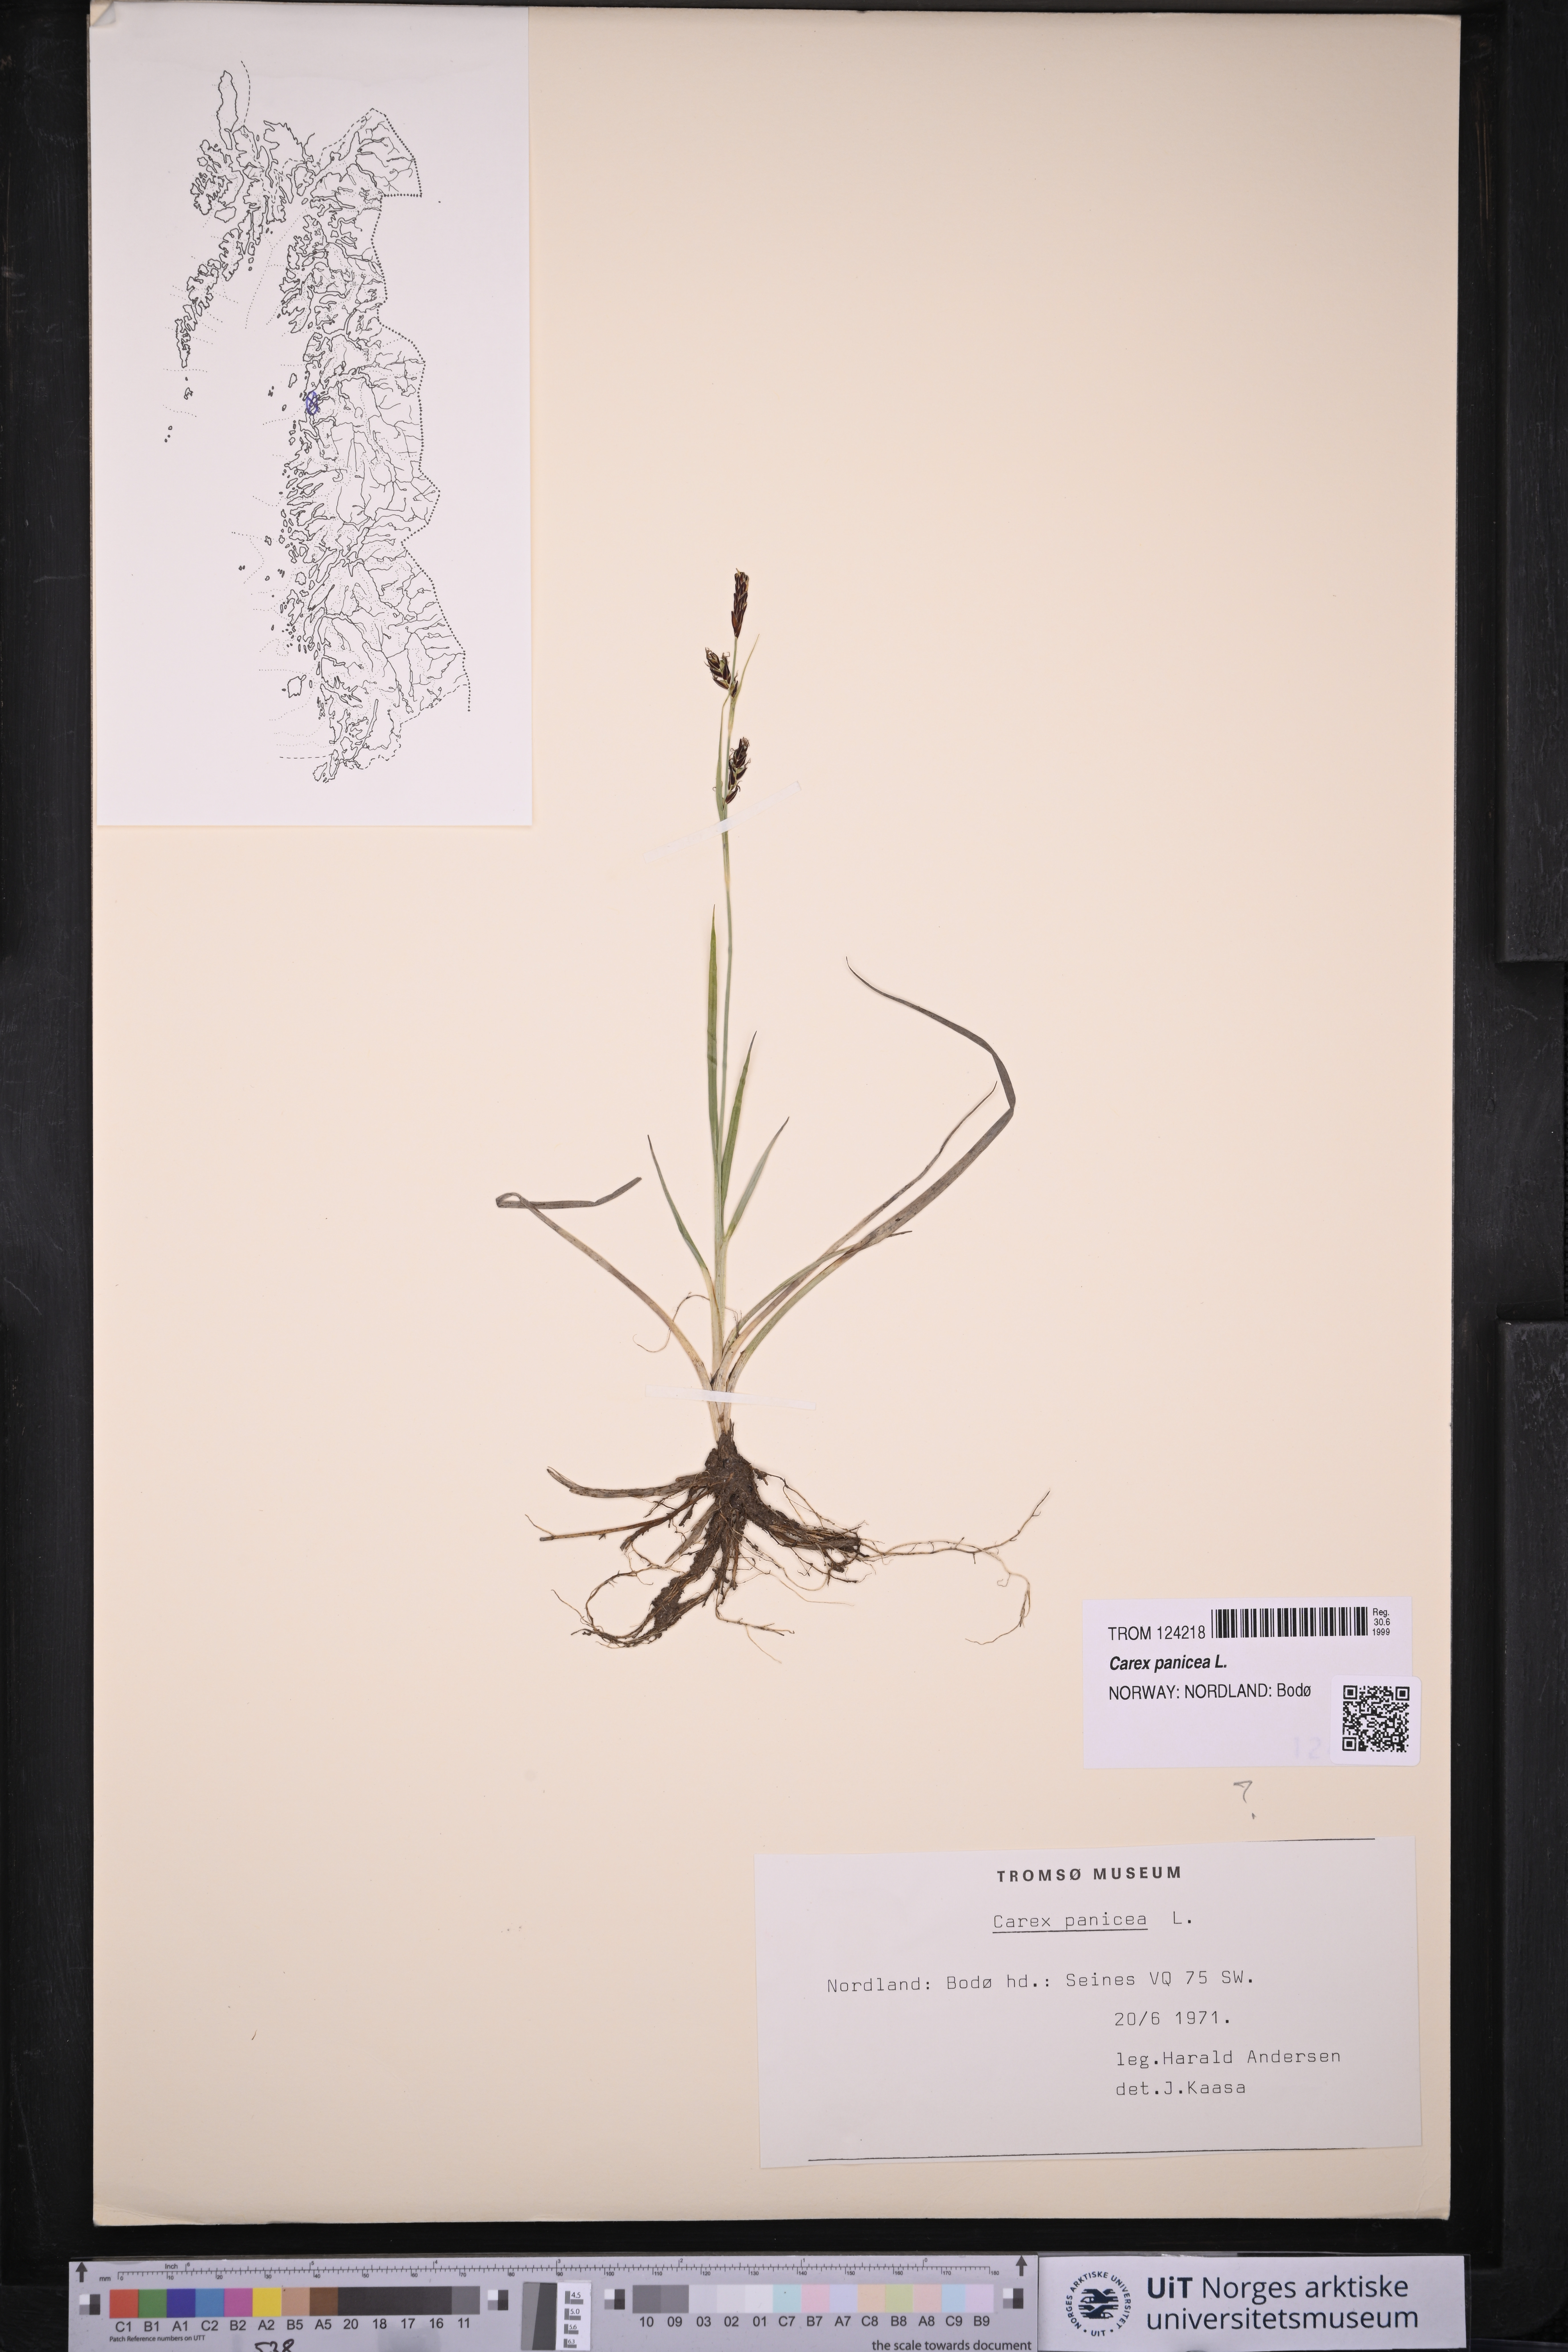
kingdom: Plantae
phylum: Tracheophyta
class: Liliopsida
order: Poales
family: Cyperaceae
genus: Carex
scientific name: Carex panicea
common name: Carnation sedge
